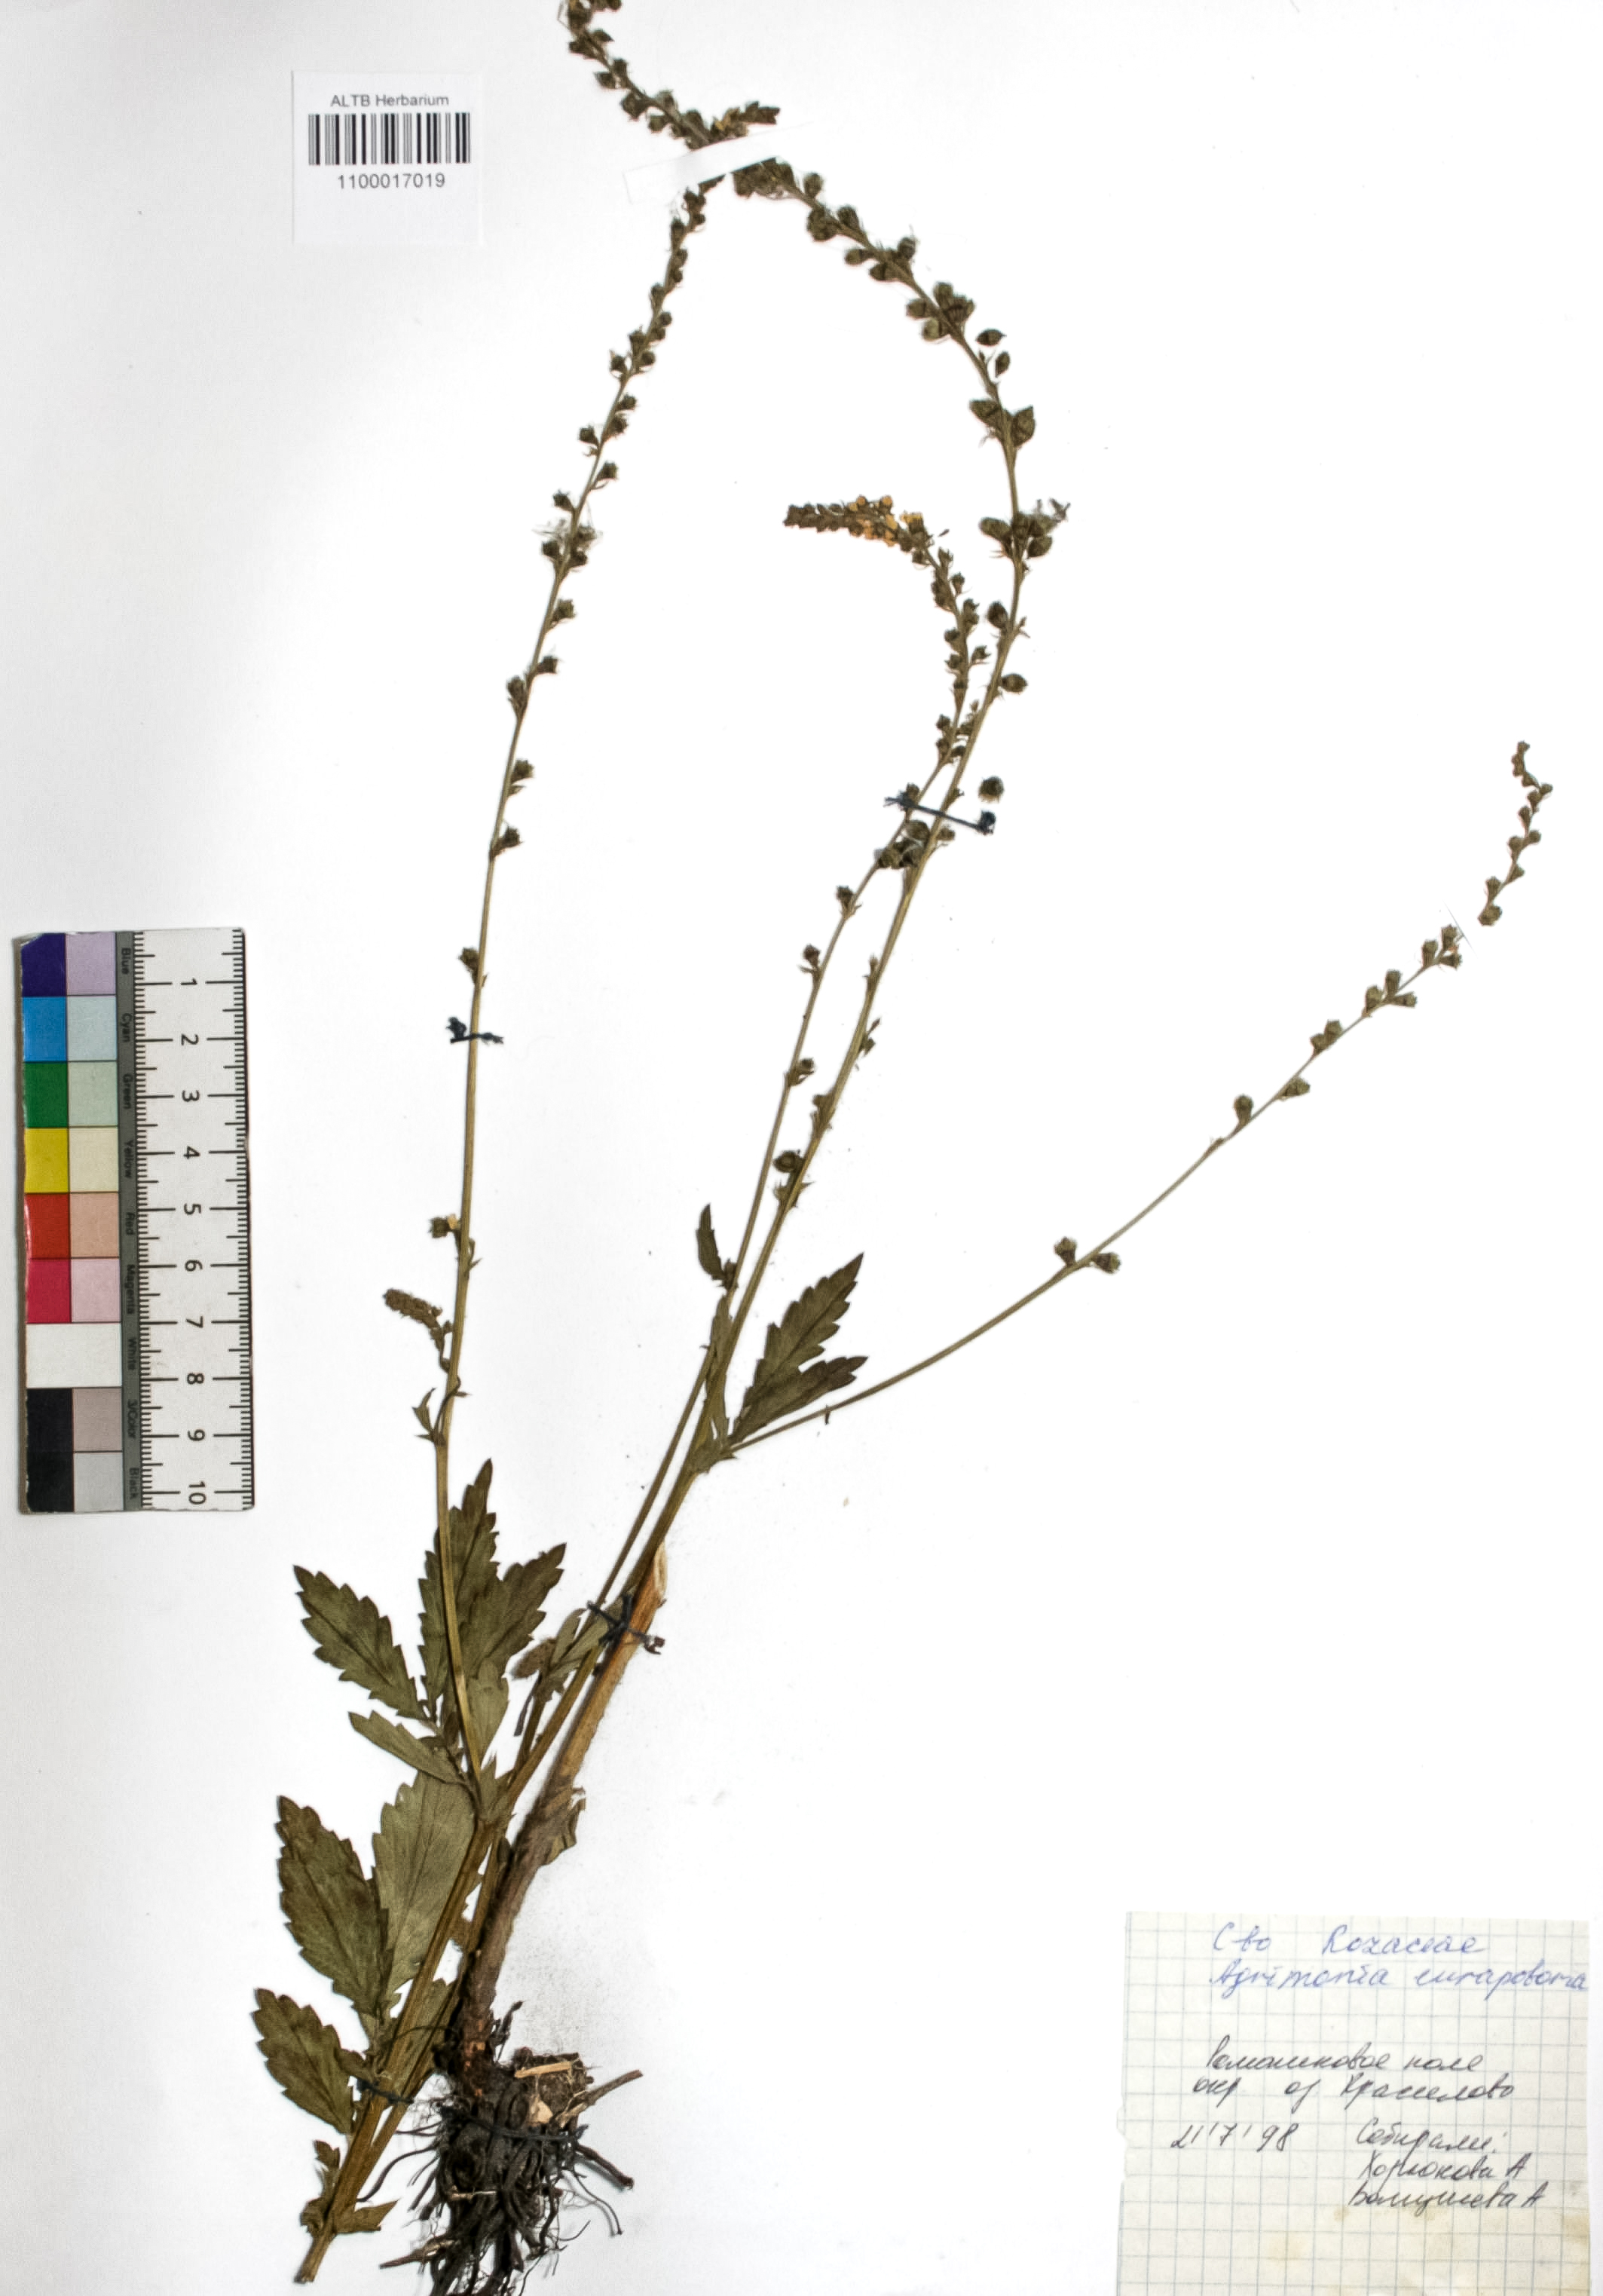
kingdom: Plantae
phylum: Tracheophyta
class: Magnoliopsida
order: Rosales
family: Rosaceae
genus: Agrimonia
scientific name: Agrimonia eupatoria
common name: Agrimony
